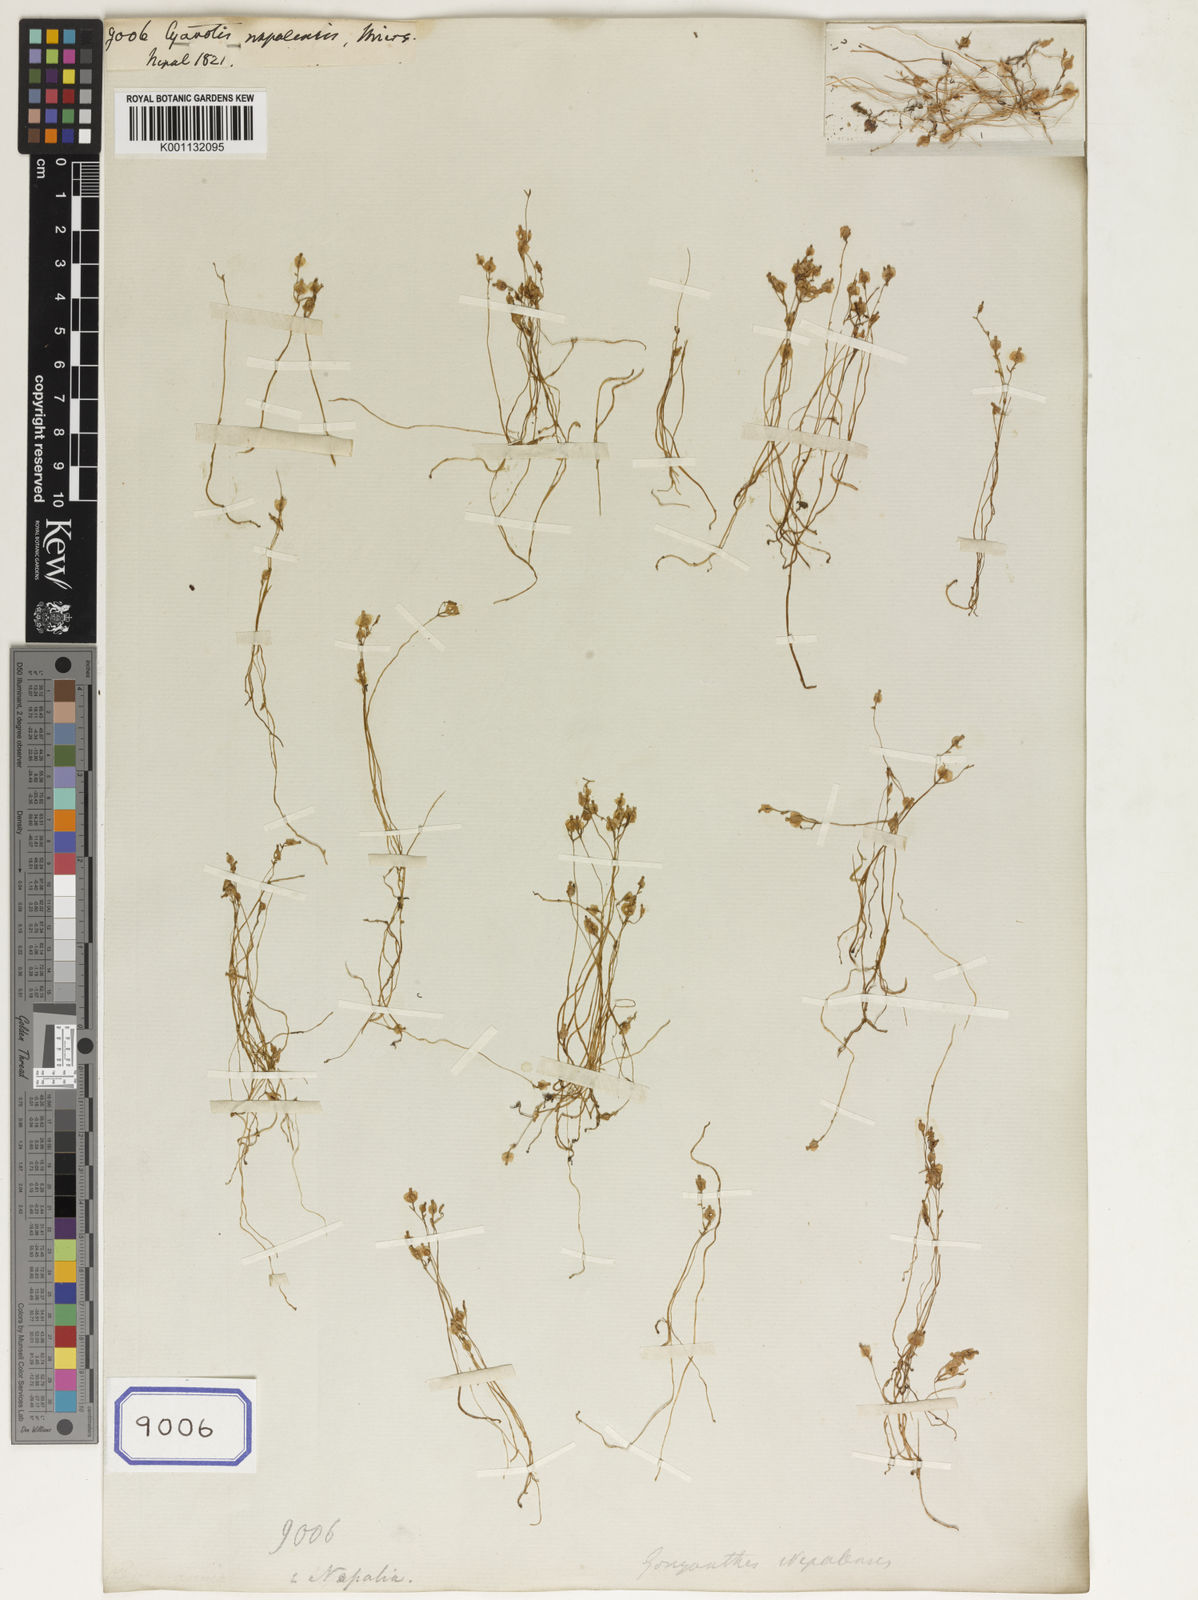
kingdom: Plantae
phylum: Tracheophyta
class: Liliopsida
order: Commelinales
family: Commelinaceae
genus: Cyanotis
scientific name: Cyanotis
